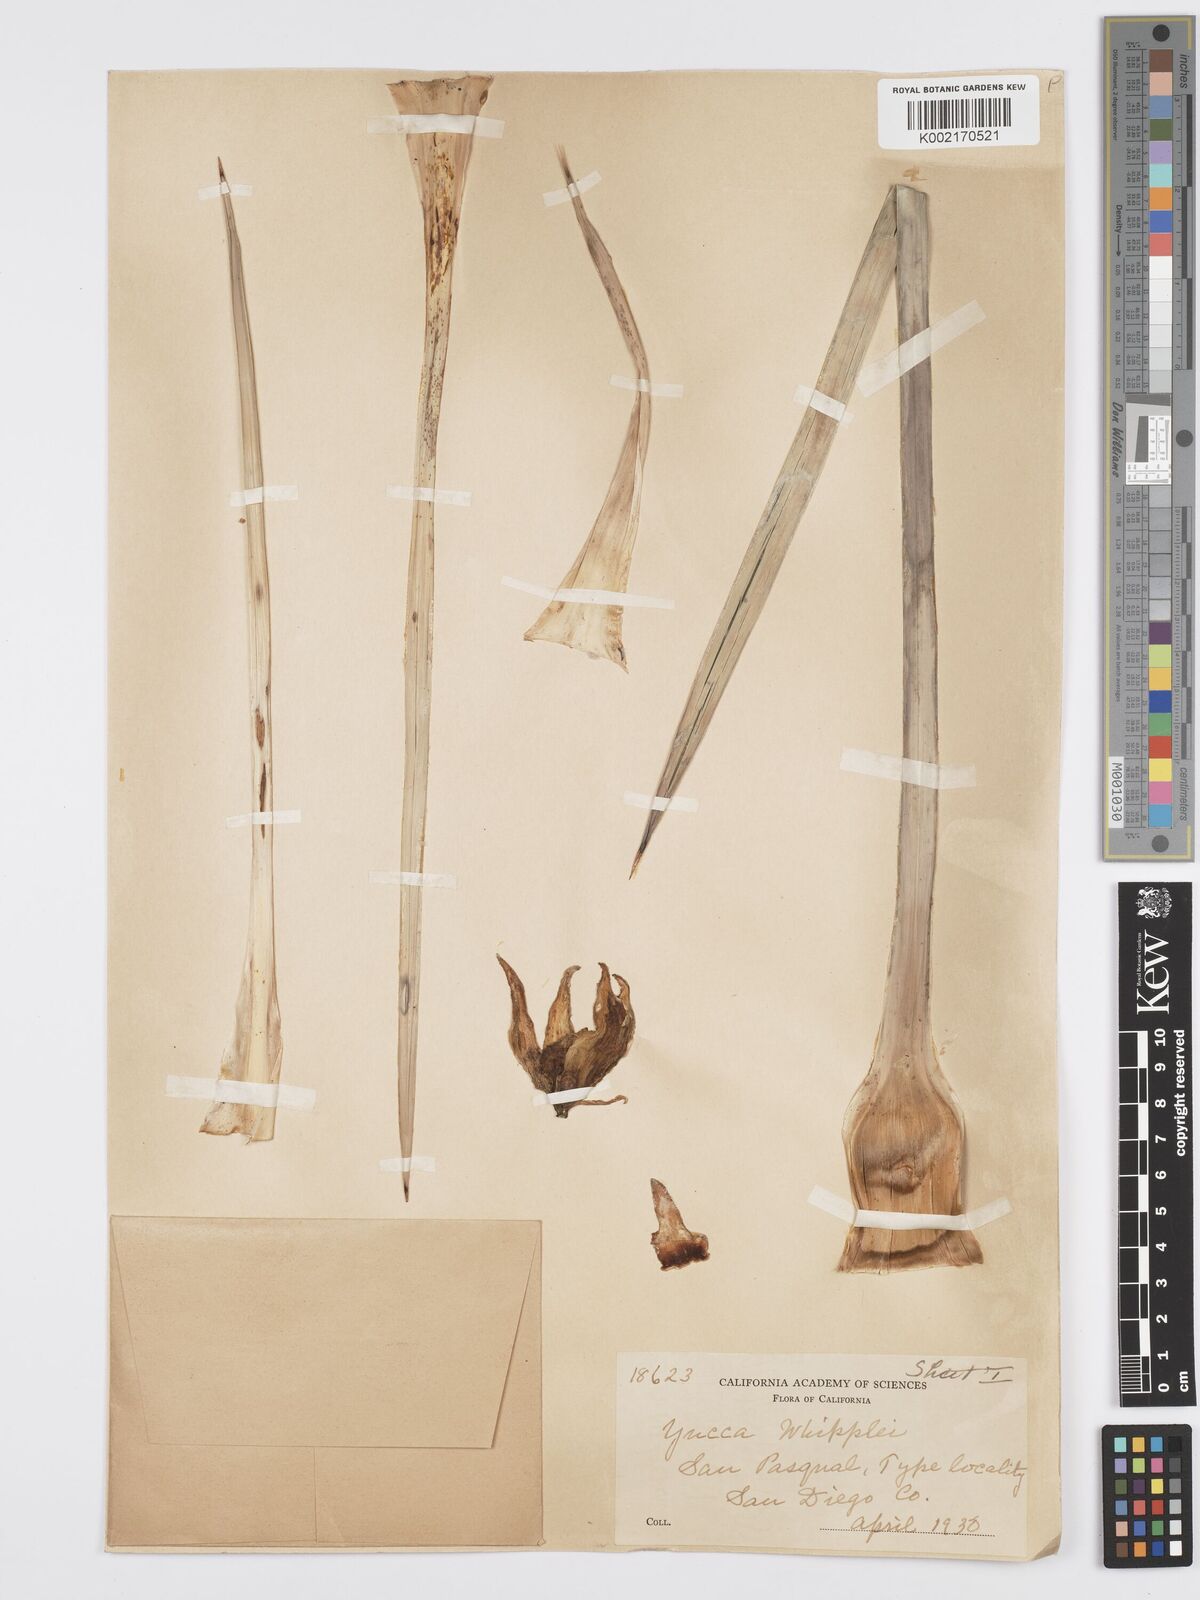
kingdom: Plantae
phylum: Tracheophyta
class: Liliopsida
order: Asparagales
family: Asparagaceae
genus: Hesperoyucca
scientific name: Hesperoyucca whipplei
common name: Our lord's-candle
